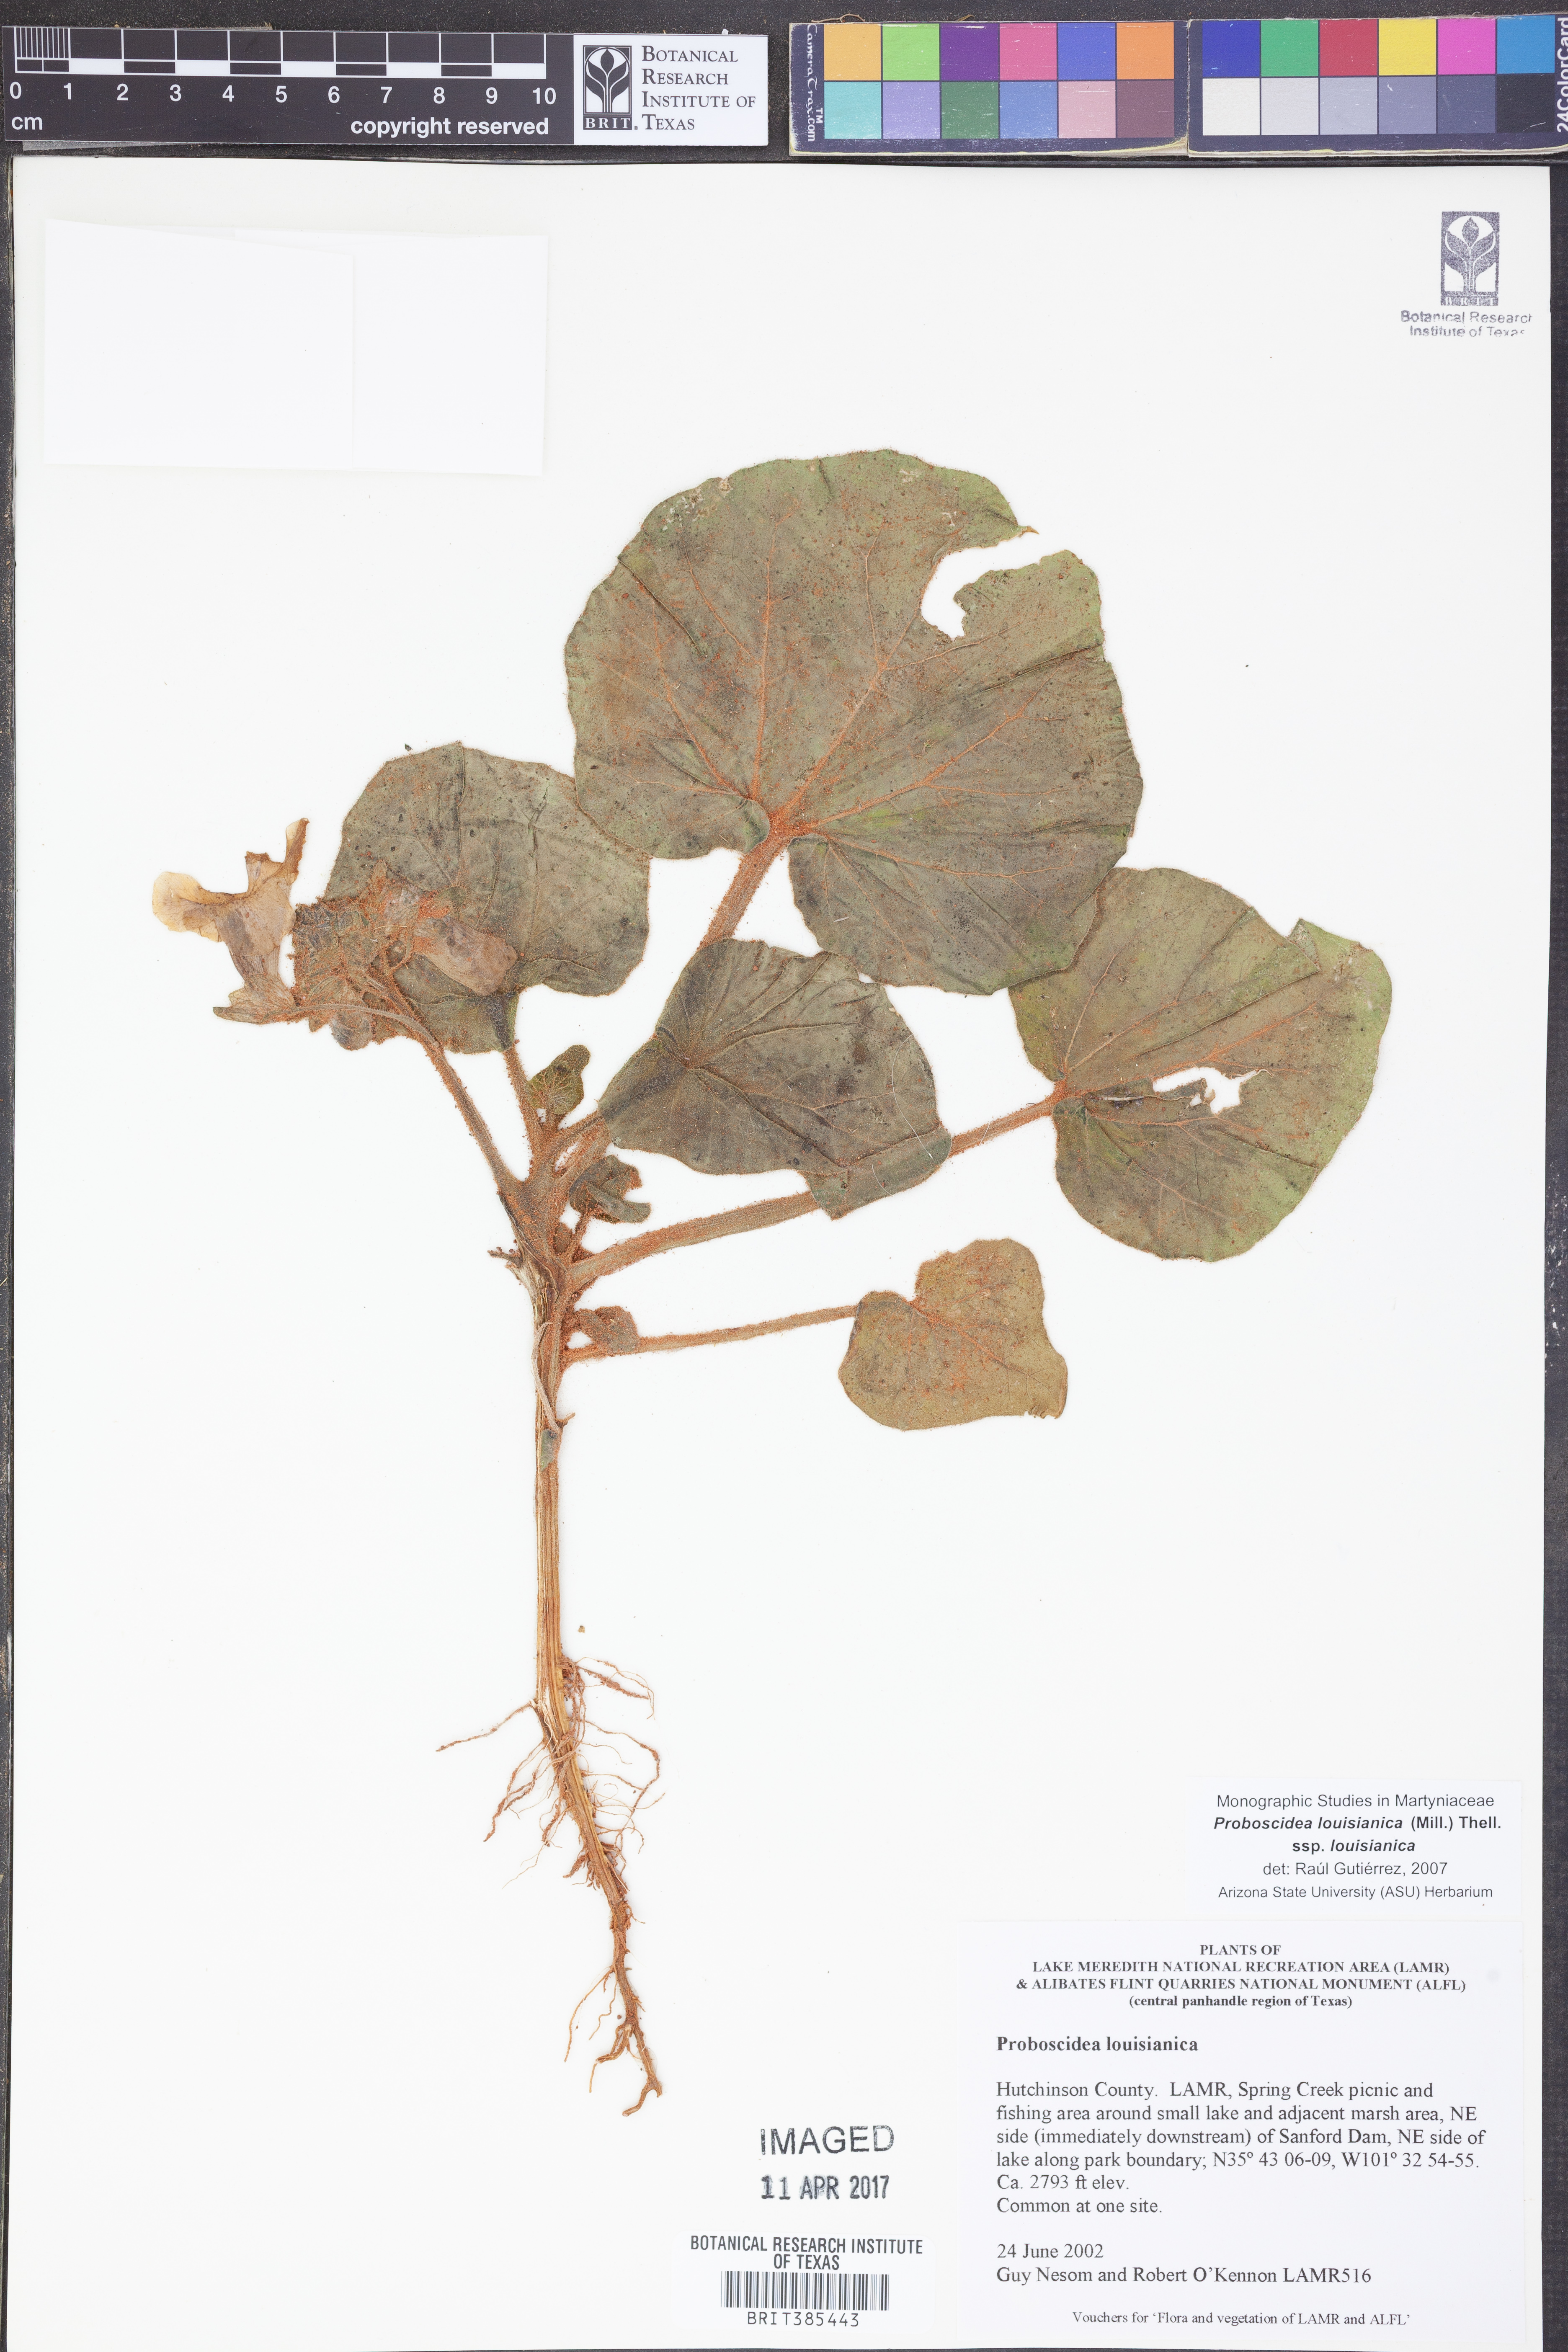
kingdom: Plantae
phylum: Tracheophyta
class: Magnoliopsida
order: Lamiales
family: Martyniaceae
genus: Proboscidea
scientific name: Proboscidea louisianica
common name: Elephant tusks
